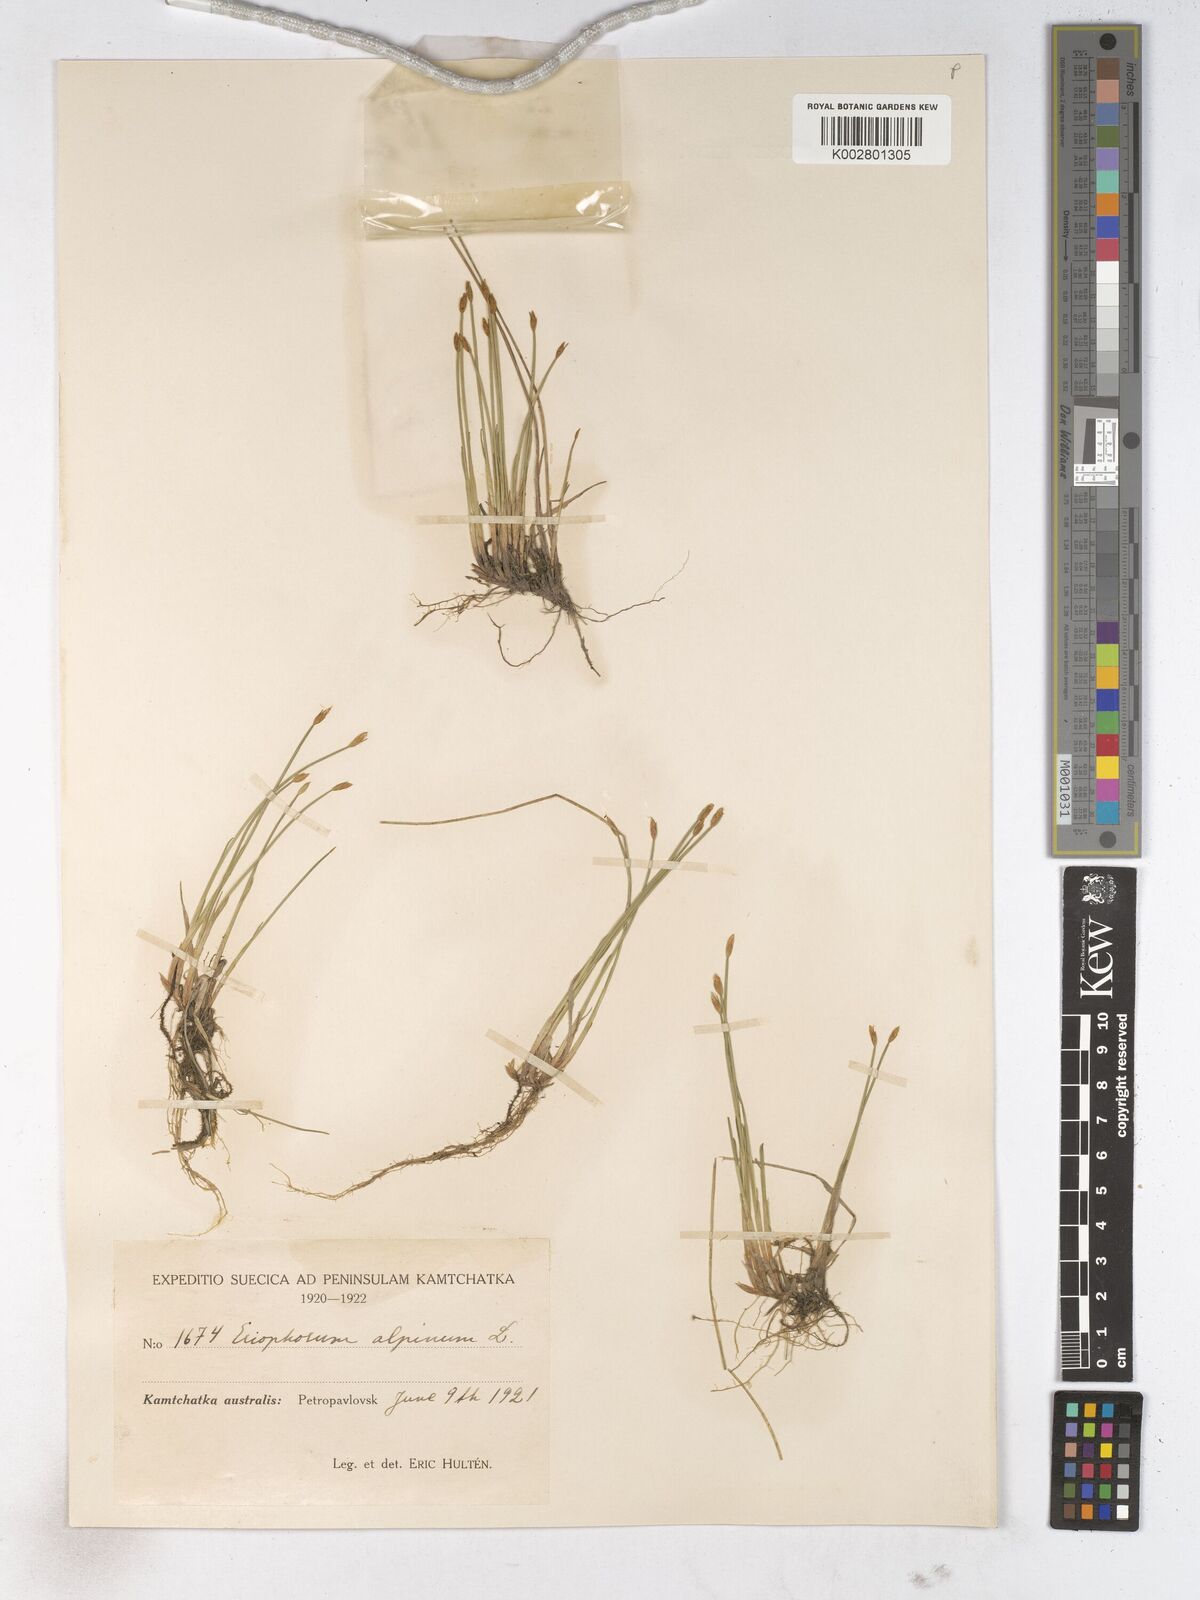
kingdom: Plantae
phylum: Tracheophyta
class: Liliopsida
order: Poales
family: Cyperaceae
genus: Trichophorum
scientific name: Trichophorum alpinum
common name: Alpine bulrush
